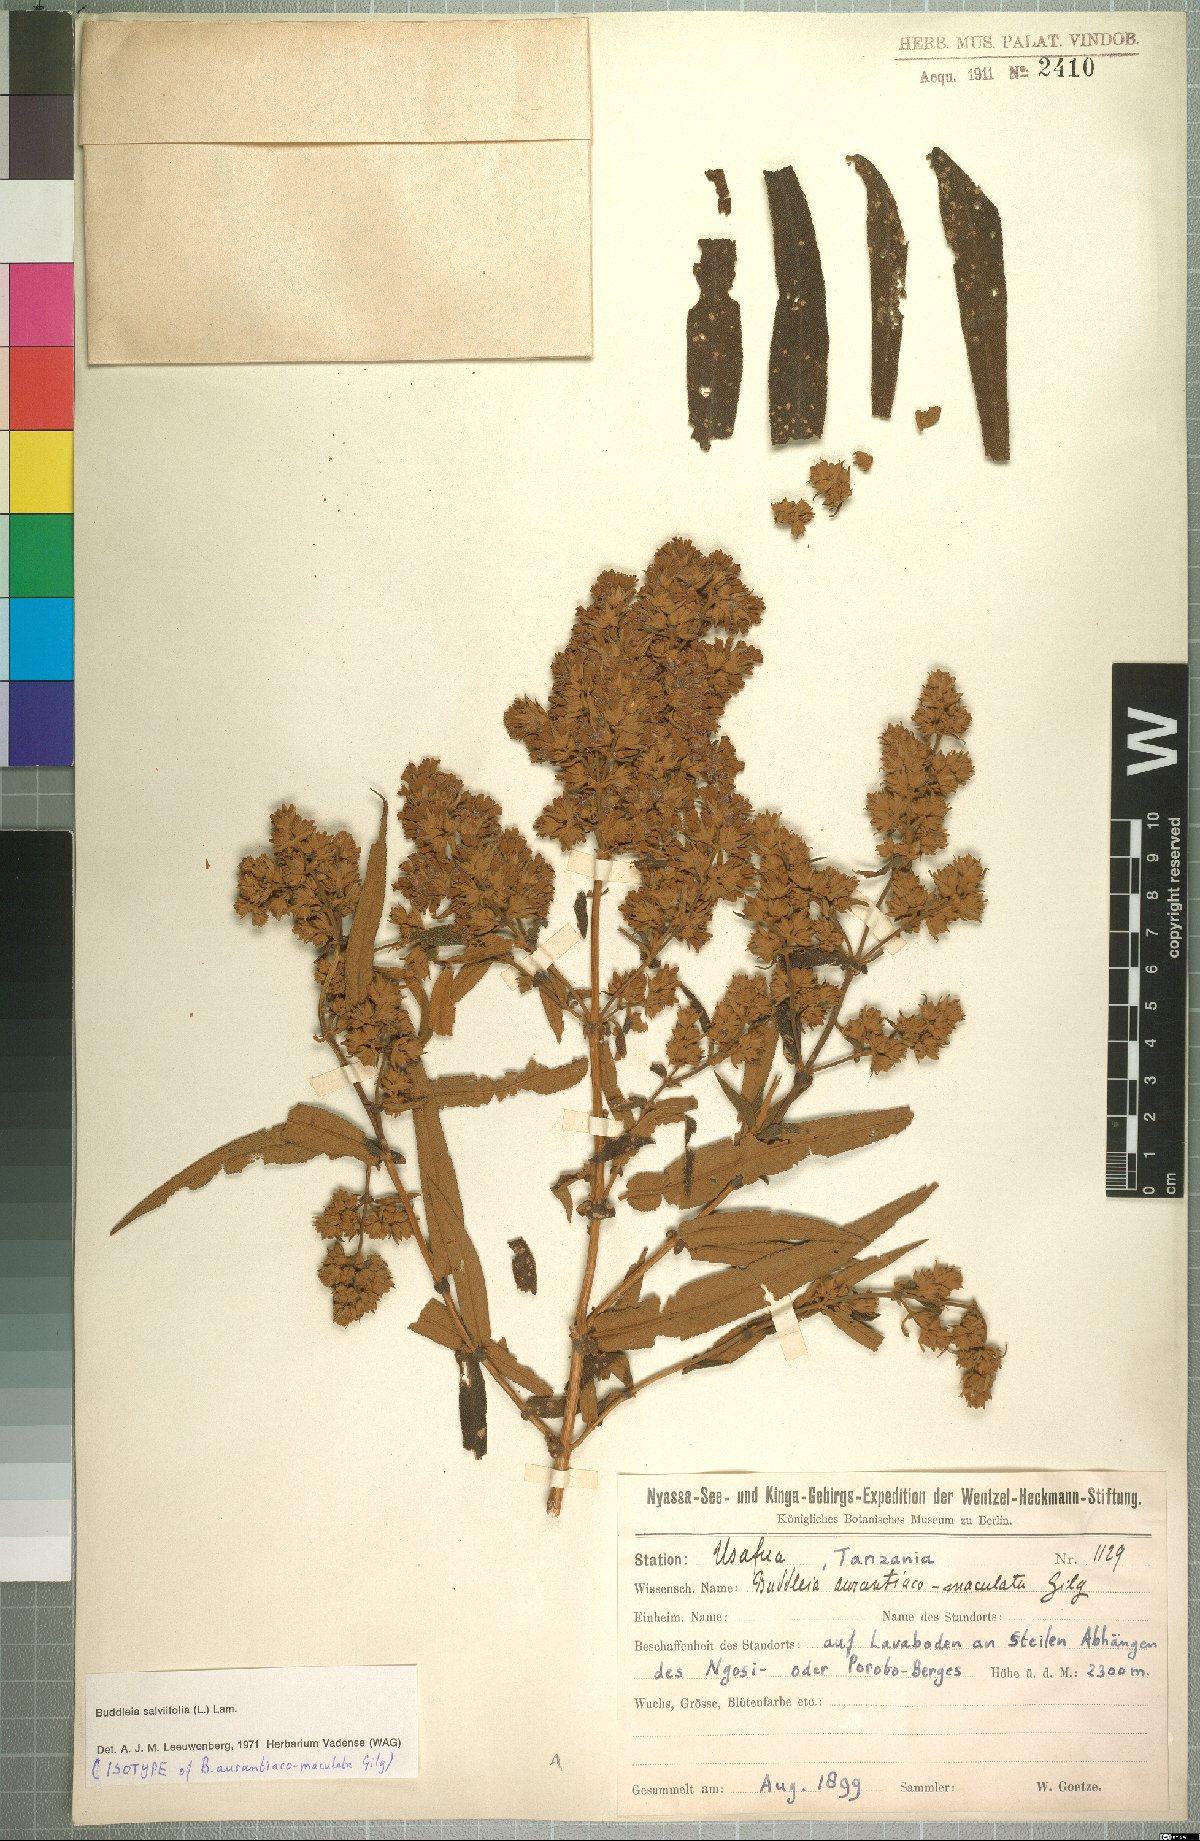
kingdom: Plantae
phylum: Tracheophyta
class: Magnoliopsida
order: Lamiales
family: Scrophulariaceae
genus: Buddleja
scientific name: Buddleja salviifolia
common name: Sagewood
